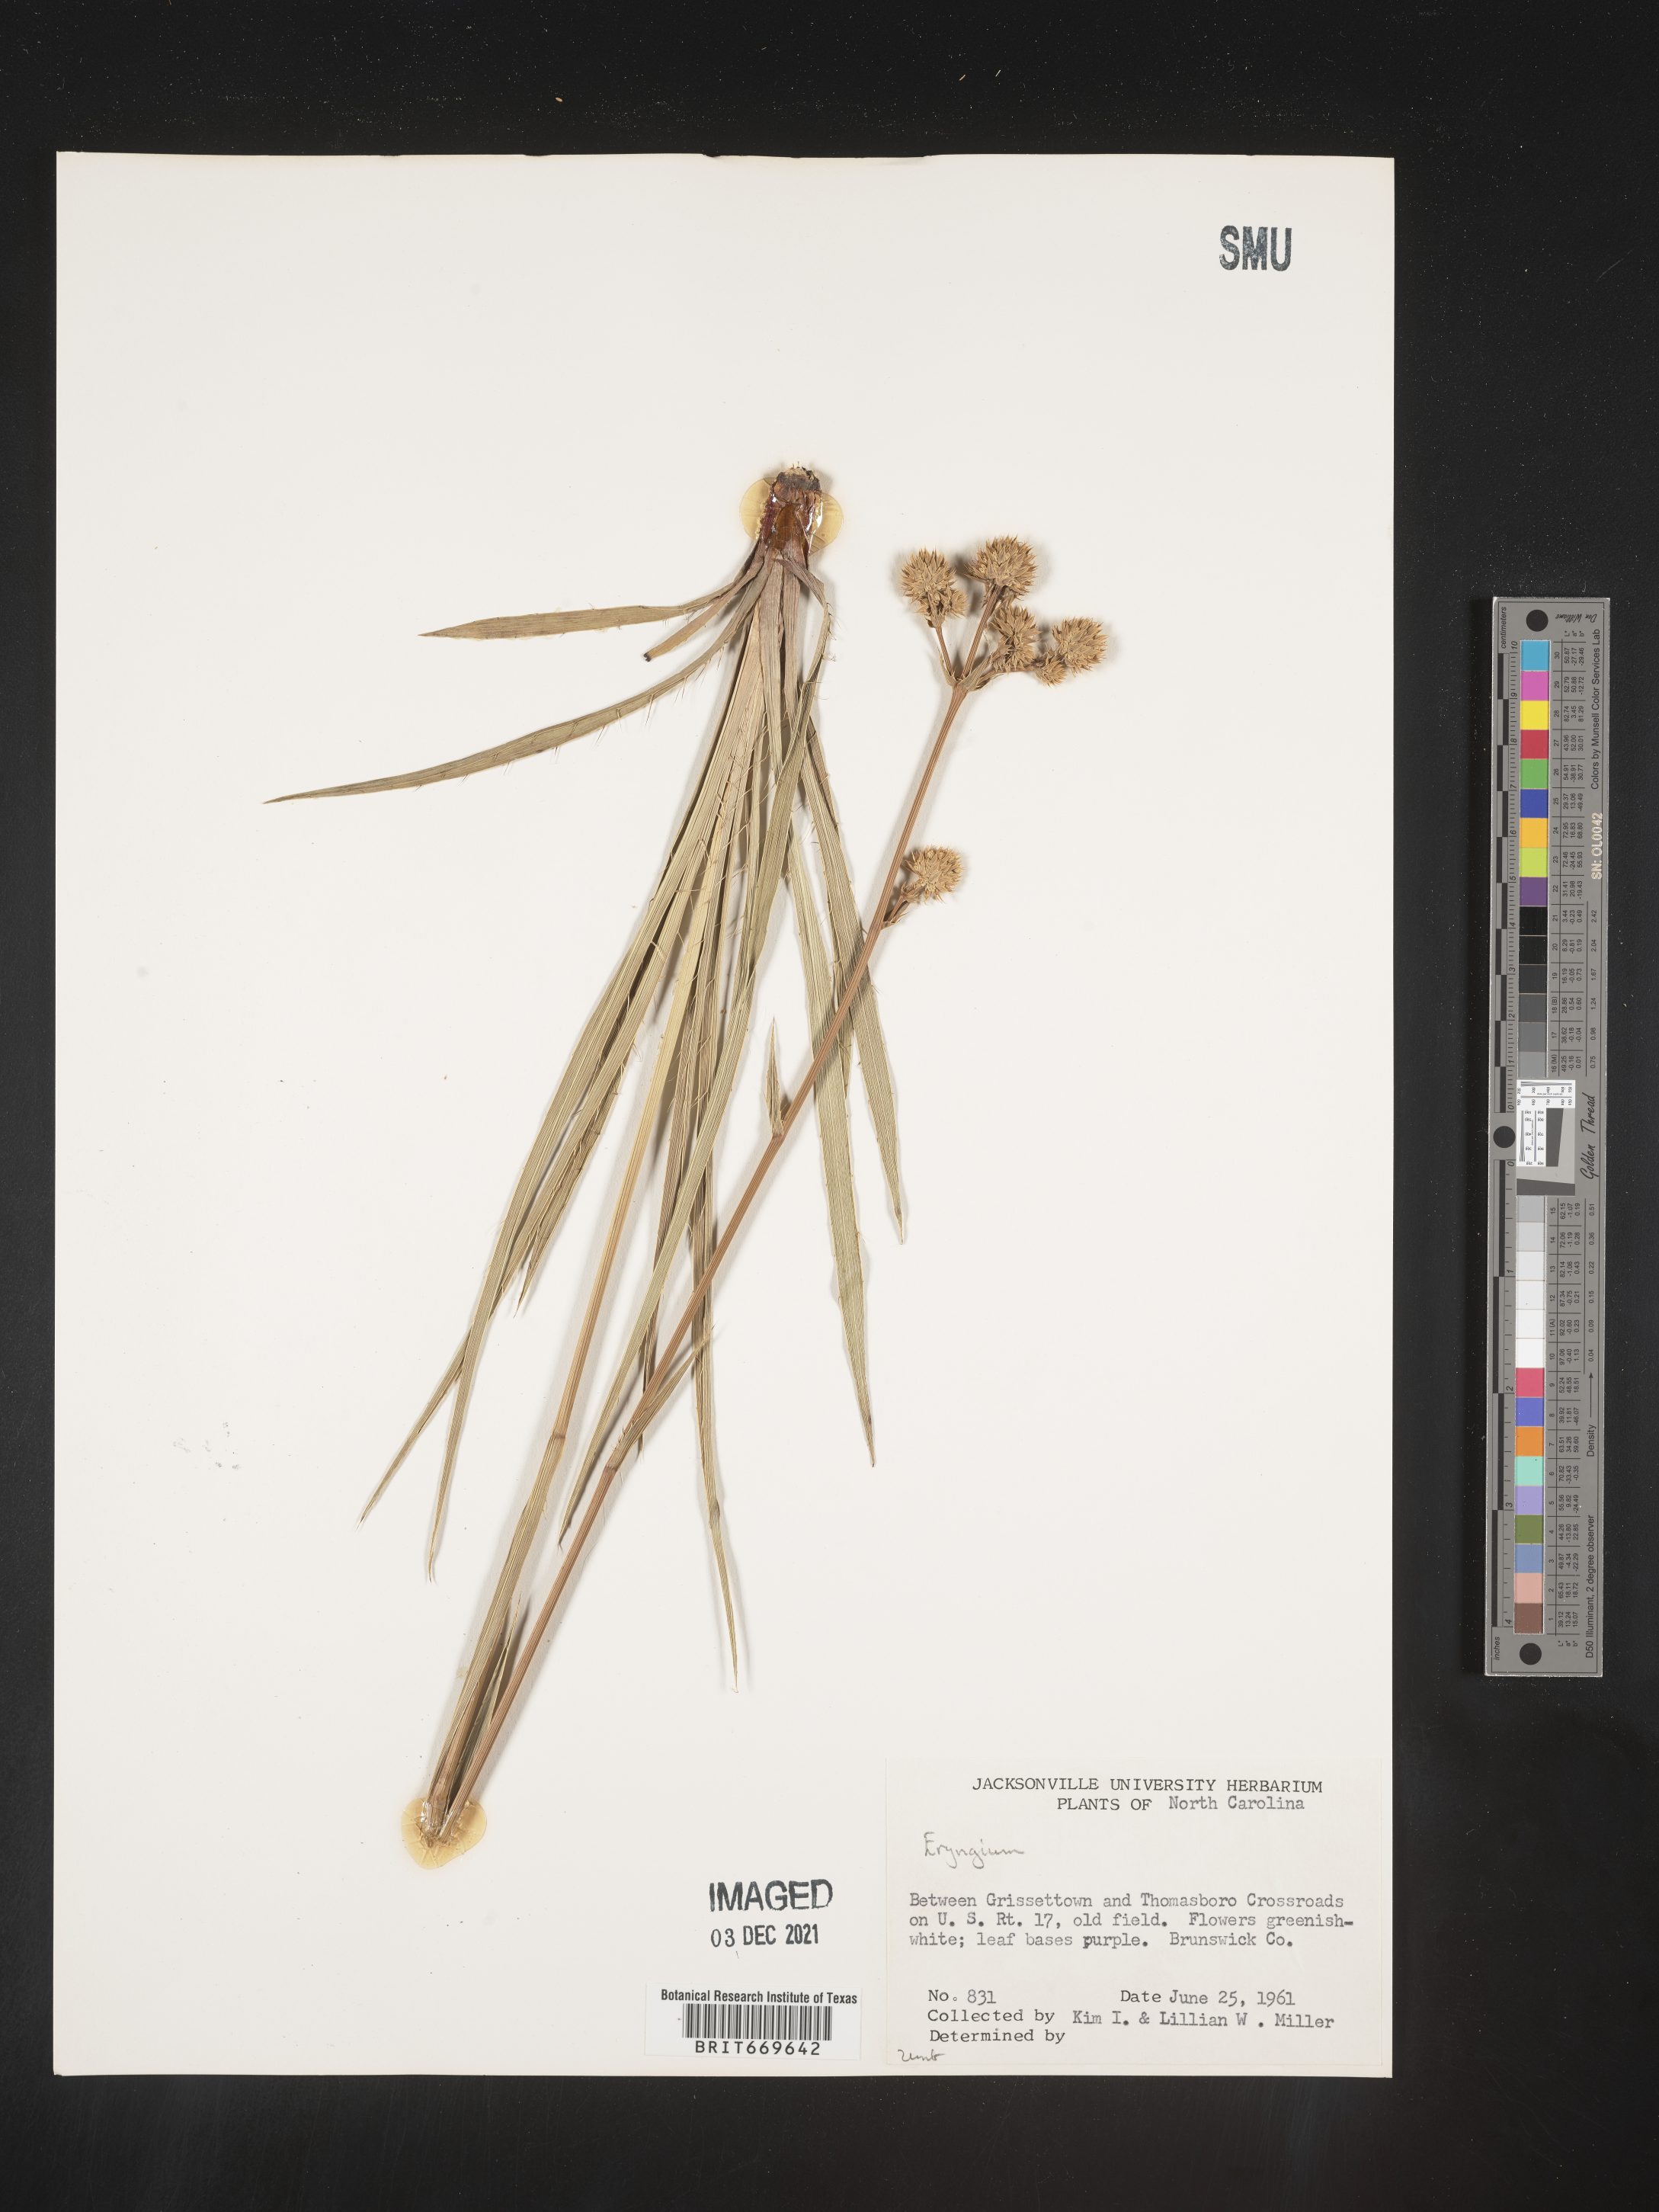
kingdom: Plantae
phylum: Tracheophyta
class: Magnoliopsida
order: Apiales
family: Apiaceae
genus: Eryngium
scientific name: Eryngium
